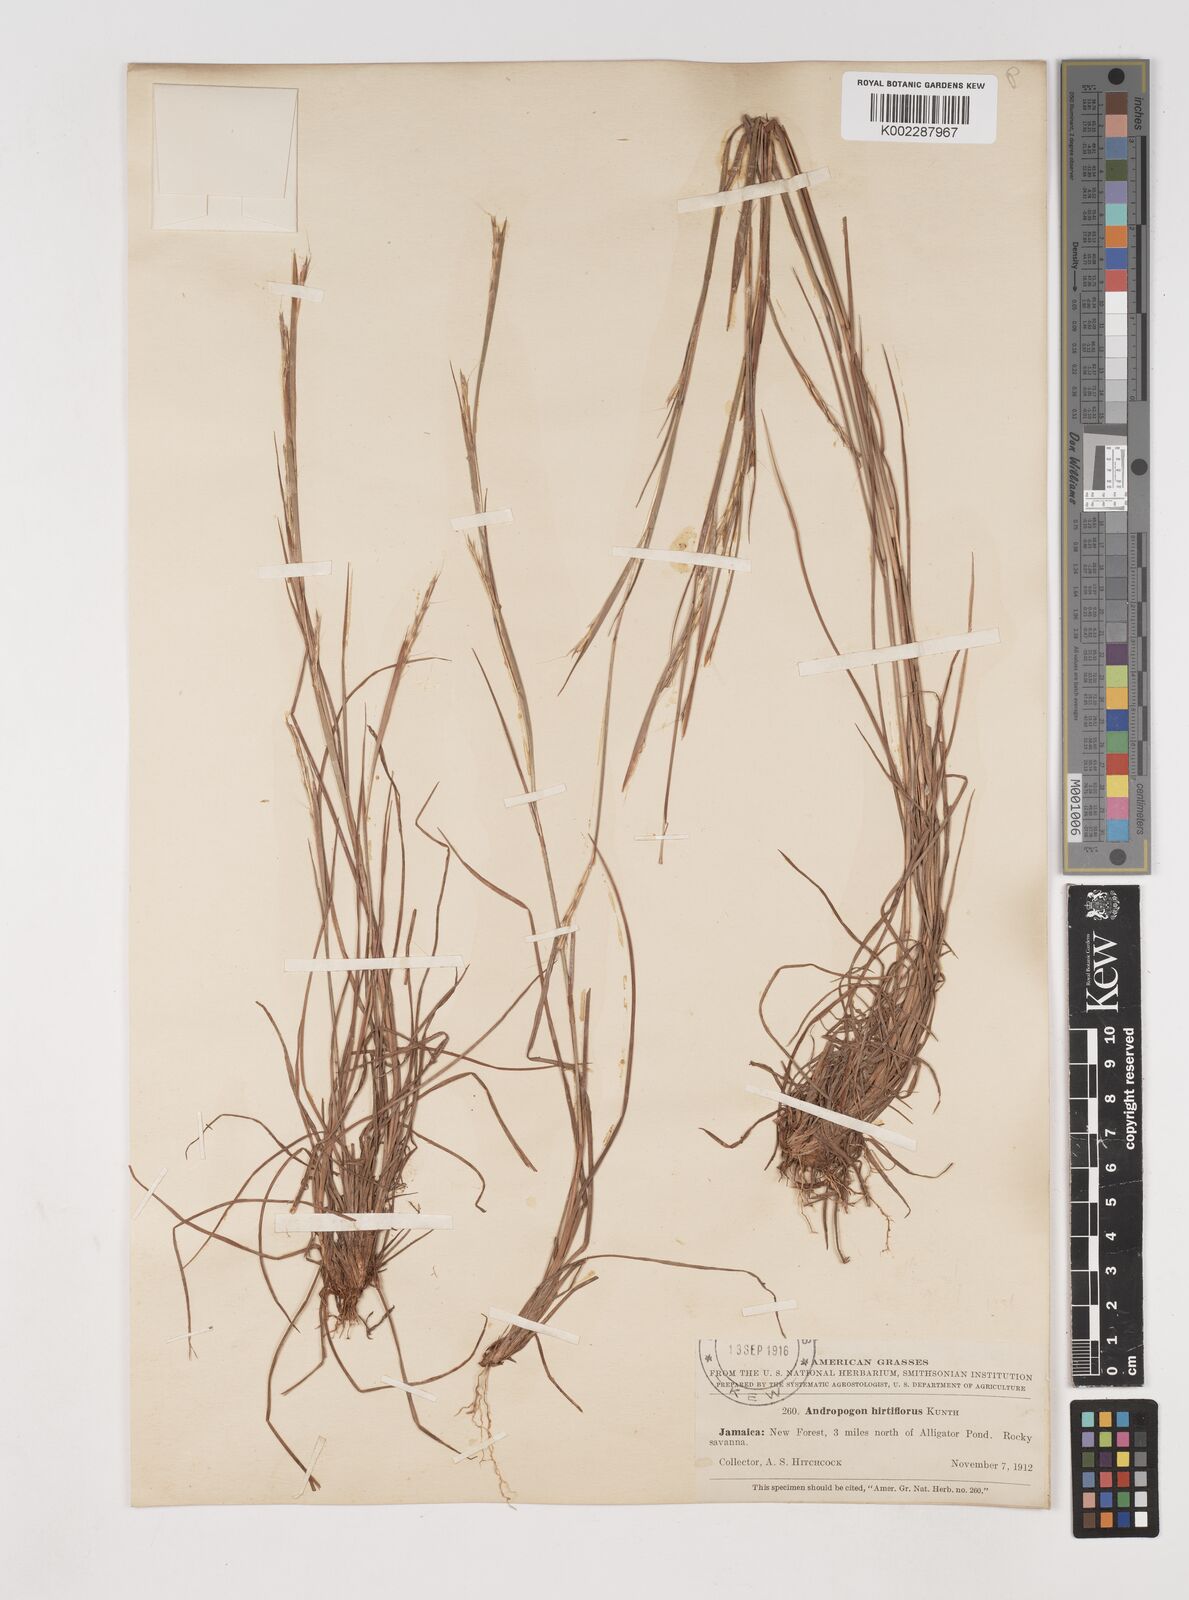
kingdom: Plantae
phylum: Tracheophyta
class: Liliopsida
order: Poales
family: Poaceae
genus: Schizachyrium
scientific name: Schizachyrium sanguineum
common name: Crimson bluestem
